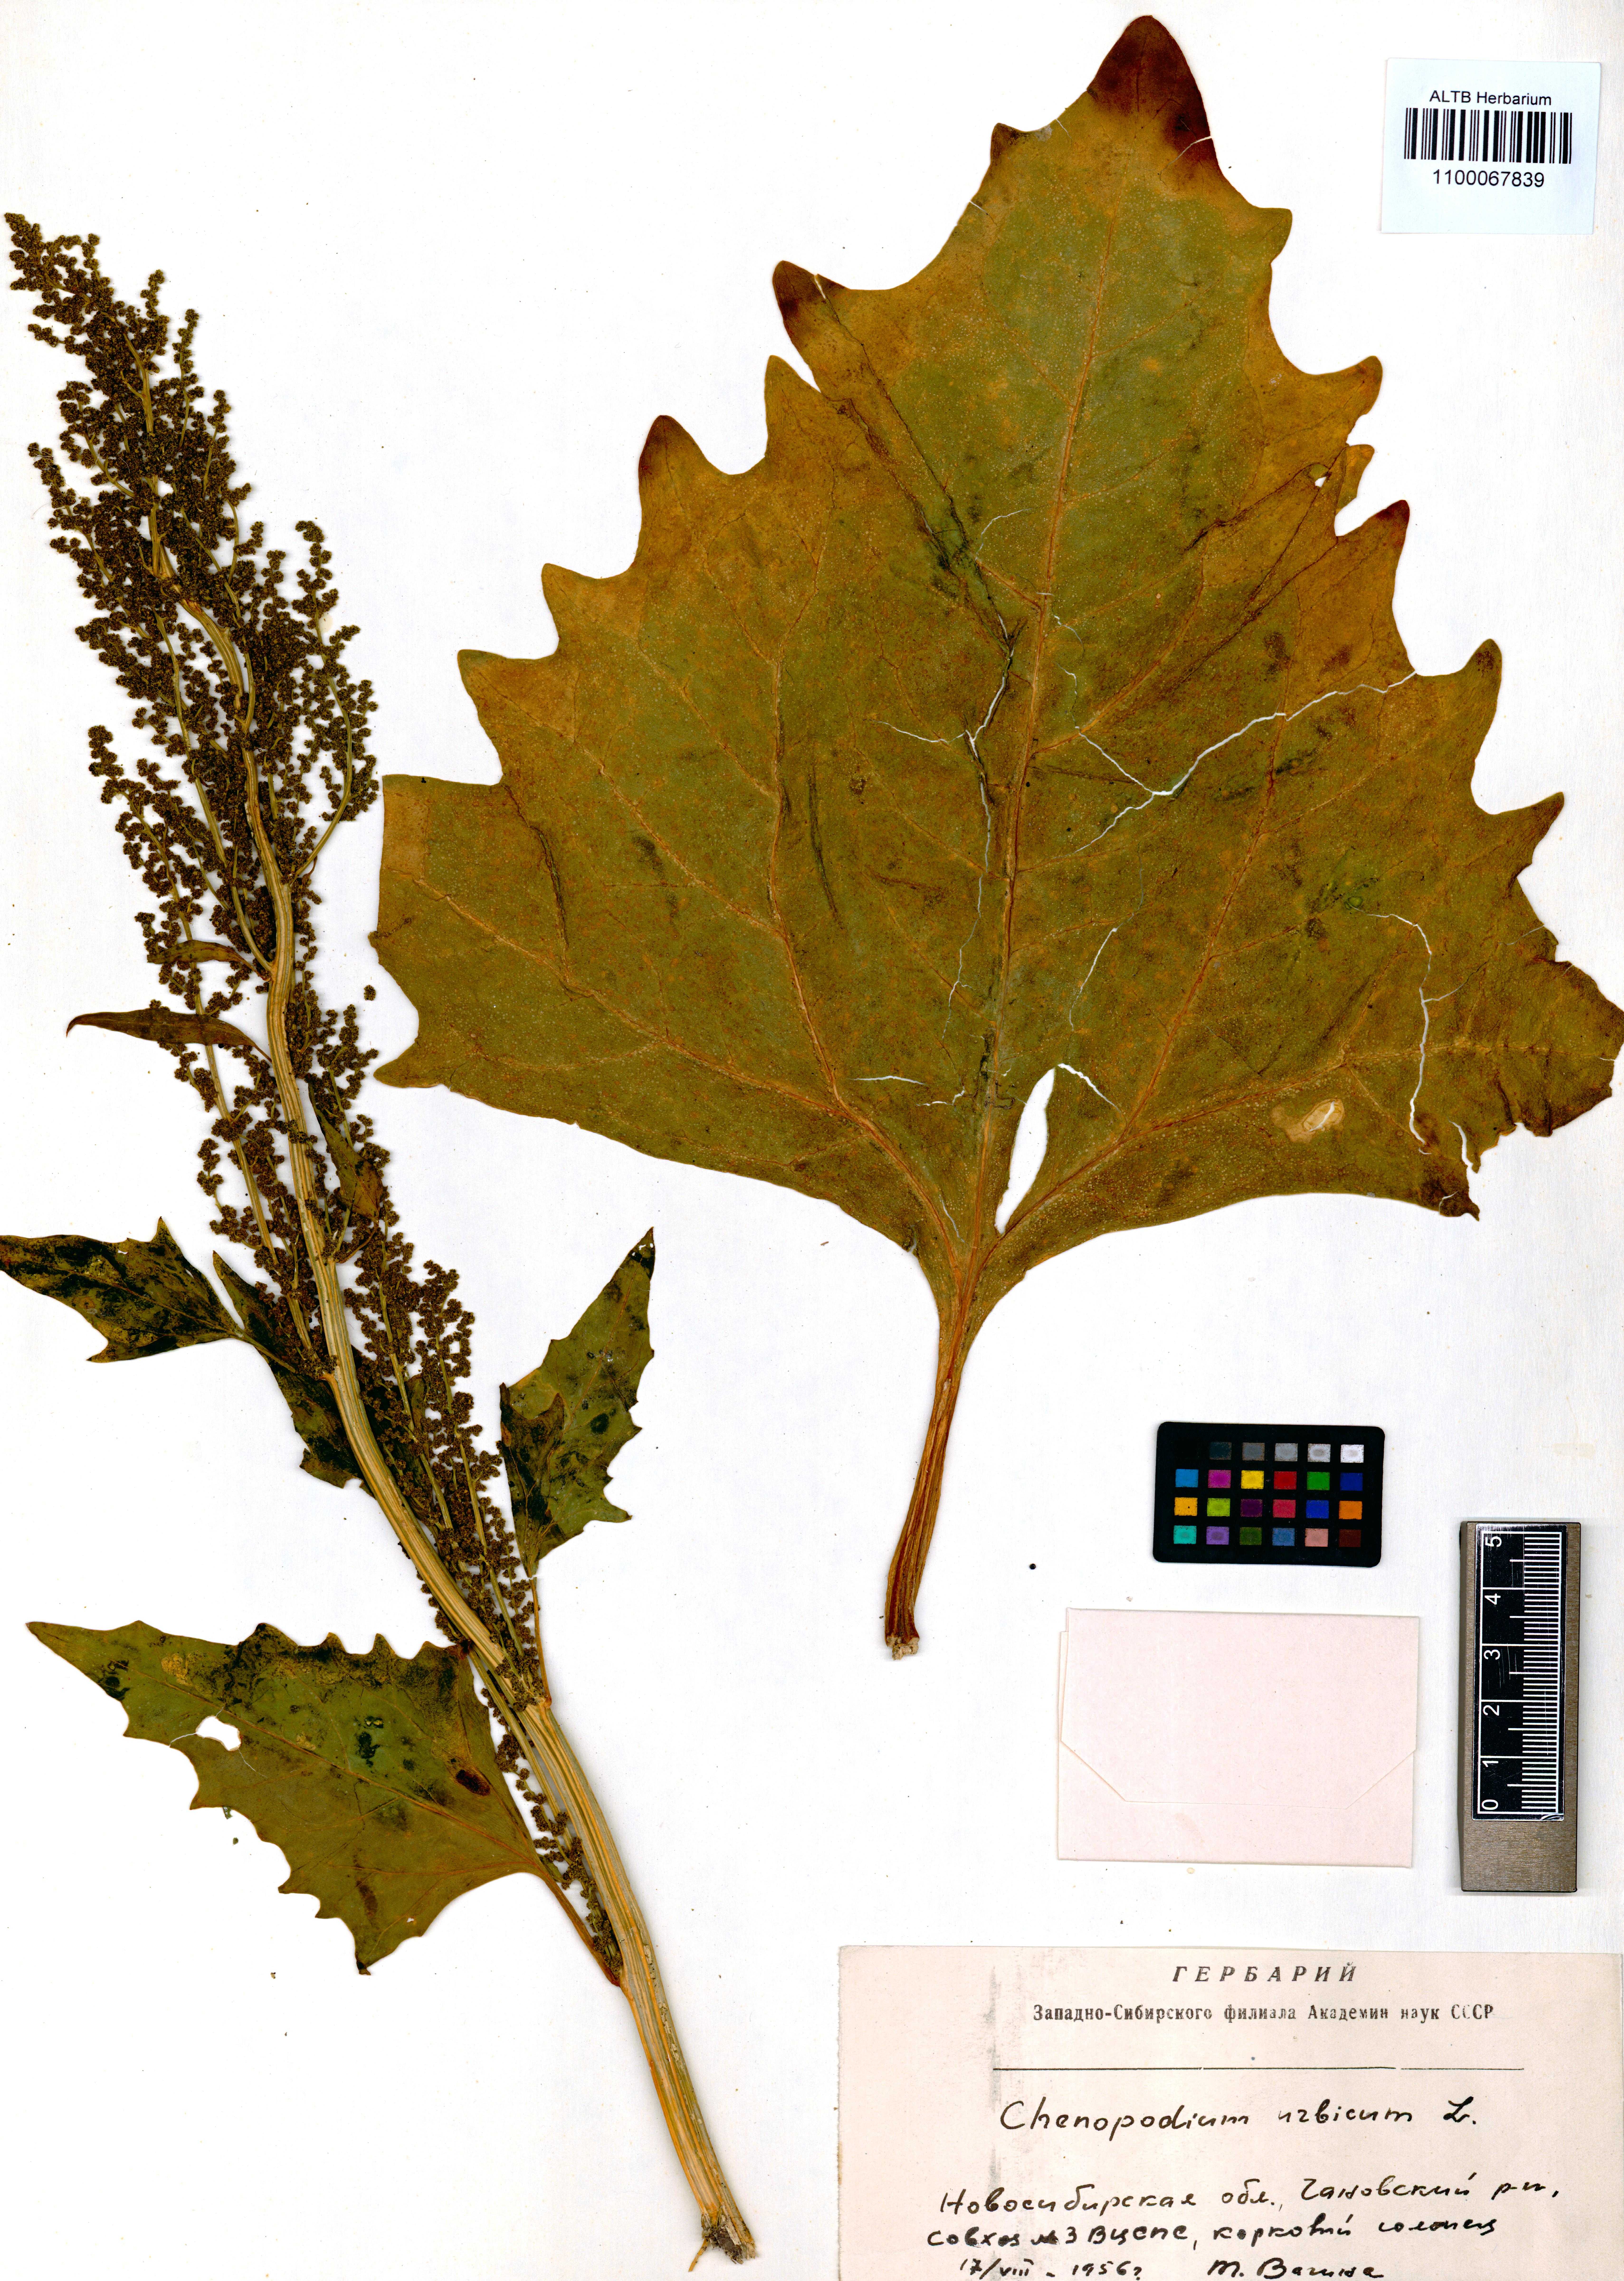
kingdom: Plantae
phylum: Tracheophyta
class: Magnoliopsida
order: Caryophyllales
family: Amaranthaceae
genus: Oxybasis
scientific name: Oxybasis urbica
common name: City goosefoot
